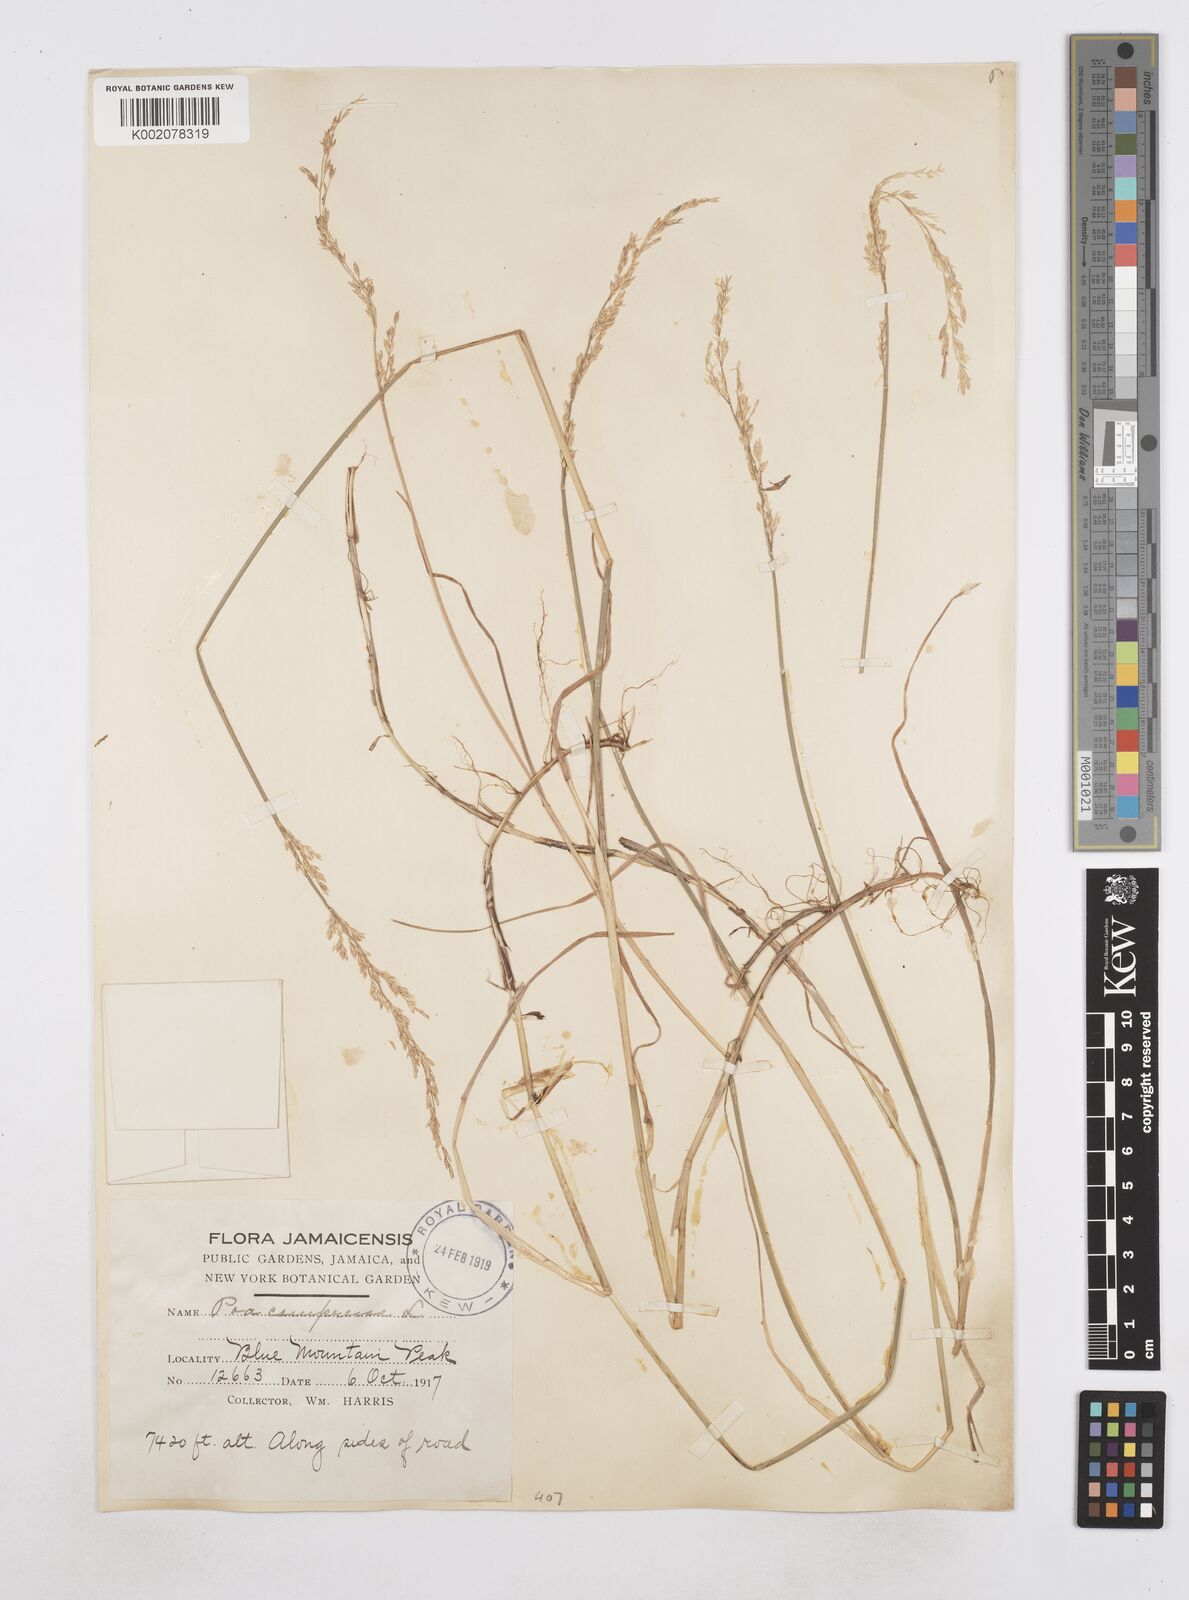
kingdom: Plantae
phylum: Tracheophyta
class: Liliopsida
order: Poales
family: Poaceae
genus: Poa
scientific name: Poa compressa
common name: Canada bluegrass
